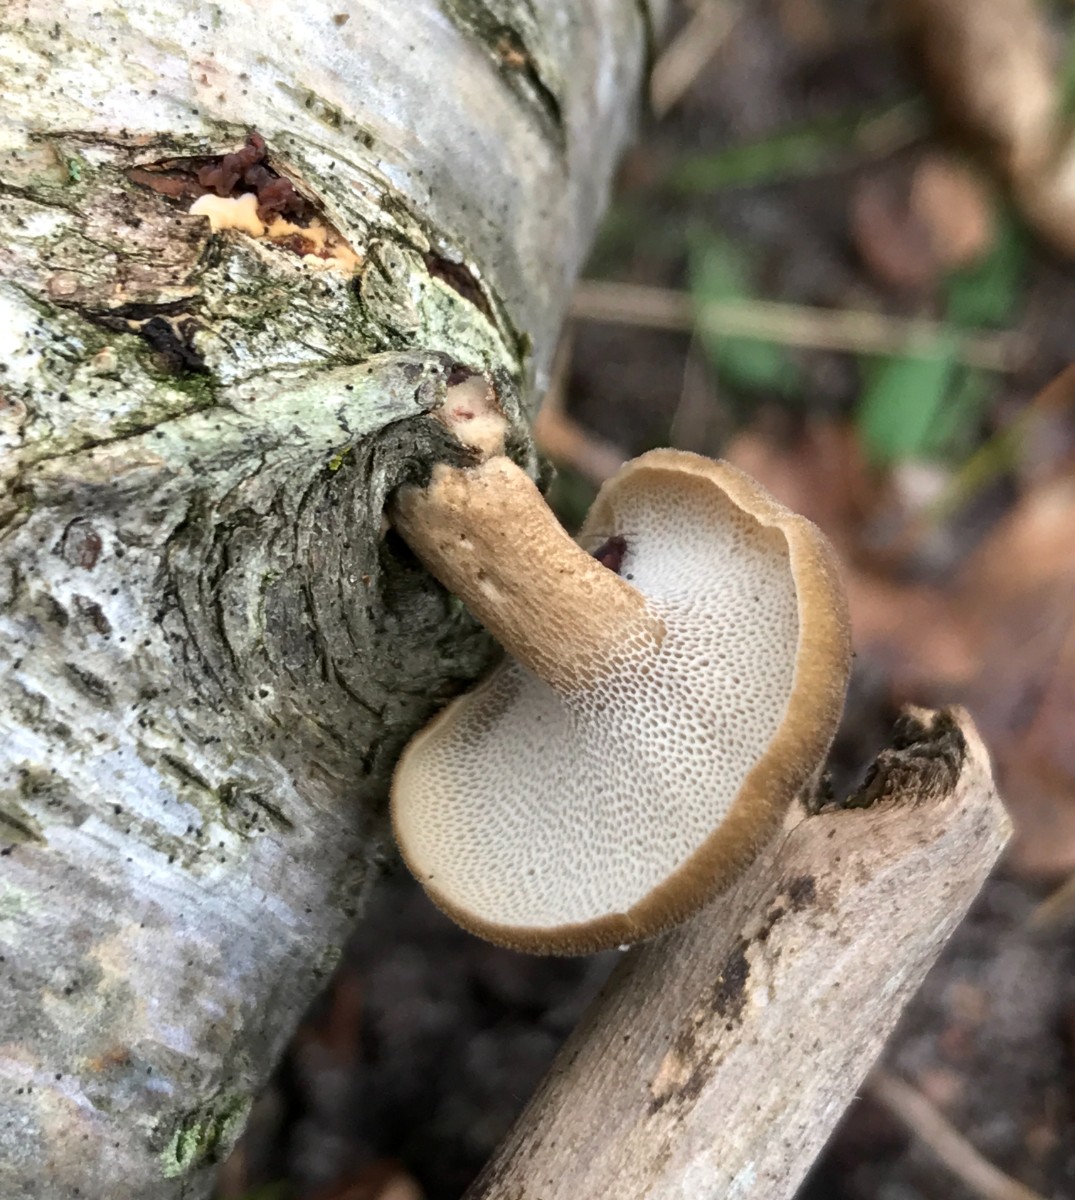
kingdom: Fungi
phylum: Basidiomycota
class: Agaricomycetes
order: Polyporales
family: Polyporaceae
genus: Lentinus
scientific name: Lentinus brumalis
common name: vinter-stilkporesvamp
